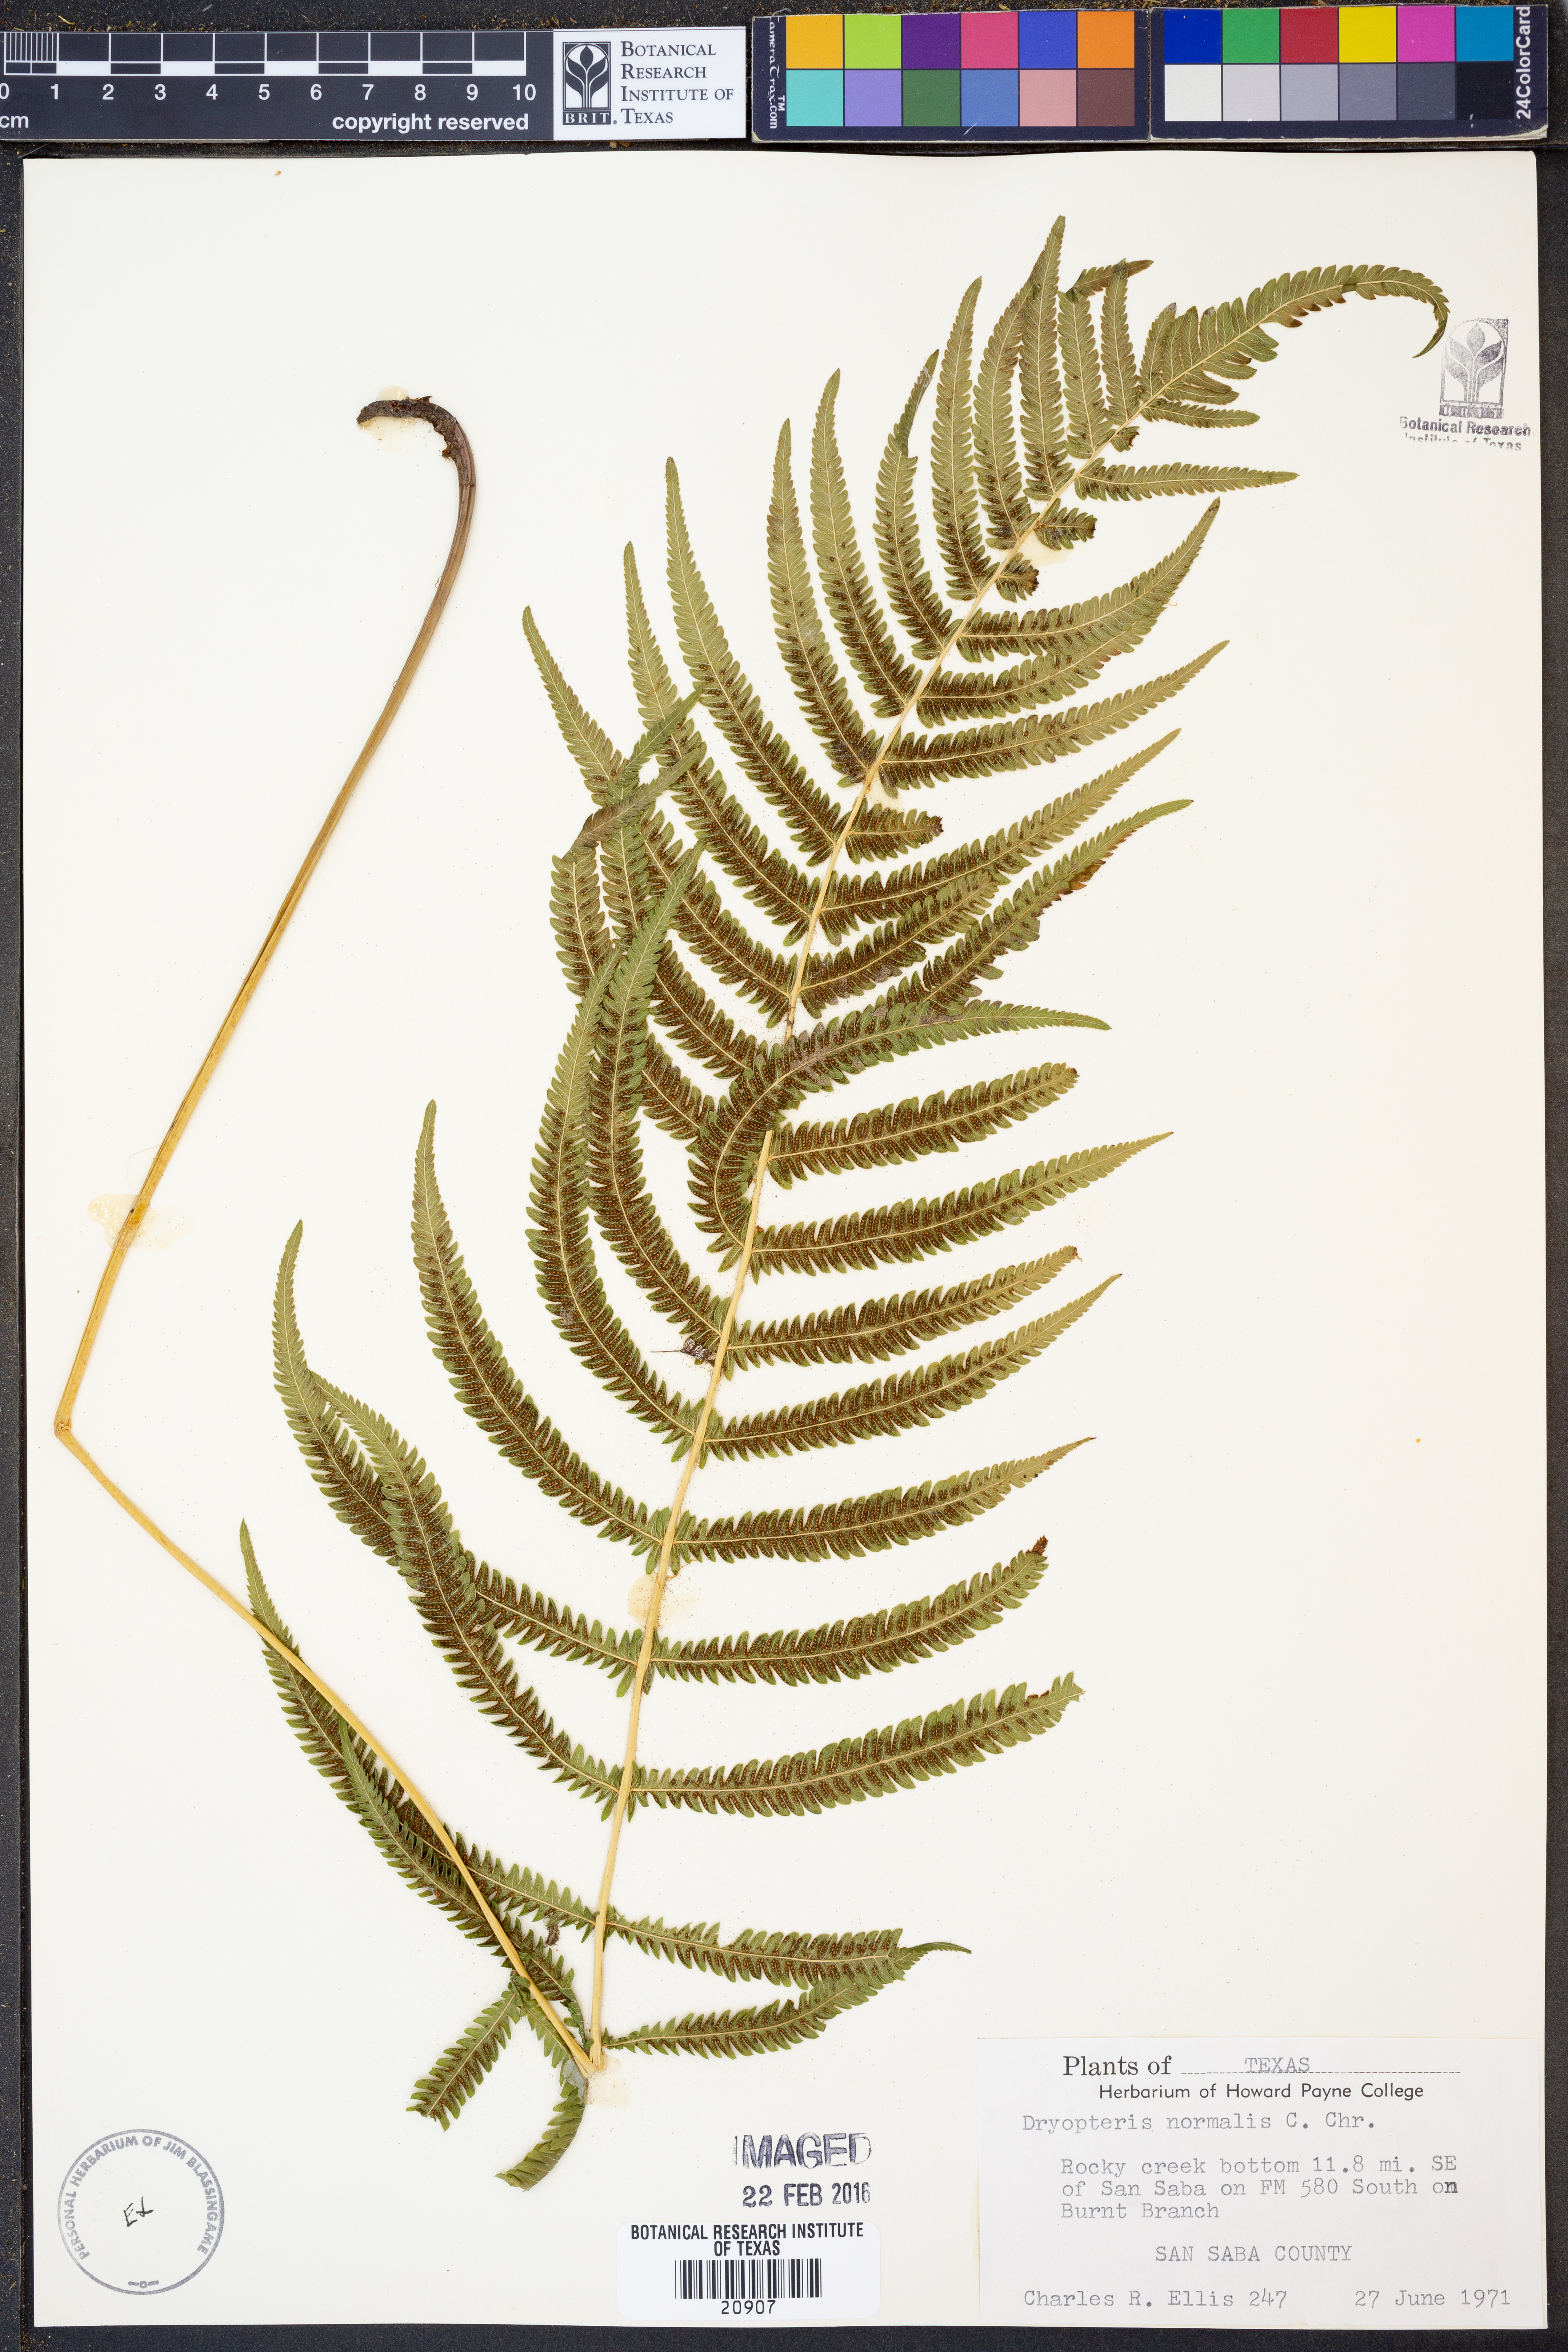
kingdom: Plantae
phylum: Tracheophyta
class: Polypodiopsida
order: Polypodiales
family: Thelypteridaceae
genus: Pelazoneuron
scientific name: Pelazoneuron kunthii
